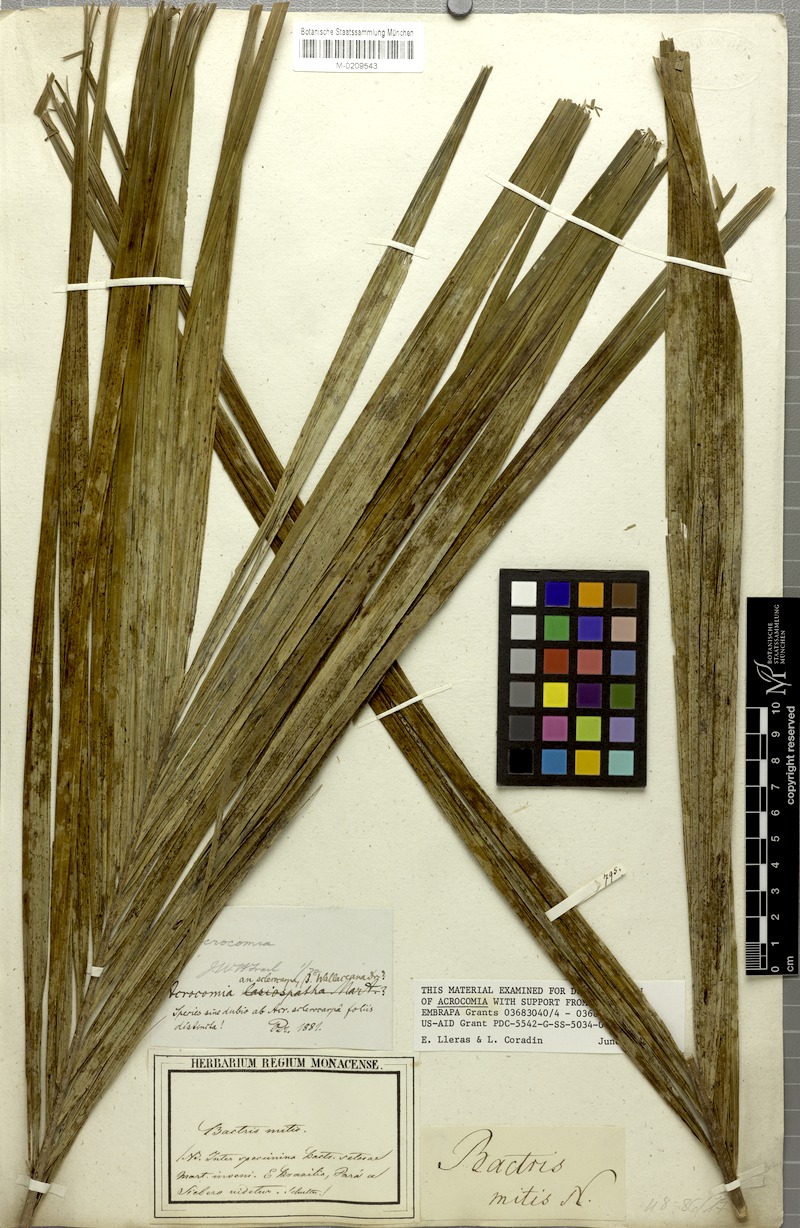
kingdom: Plantae
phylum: Tracheophyta
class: Liliopsida
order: Arecales
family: Arecaceae
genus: Bactris
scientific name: Bactris setosa
